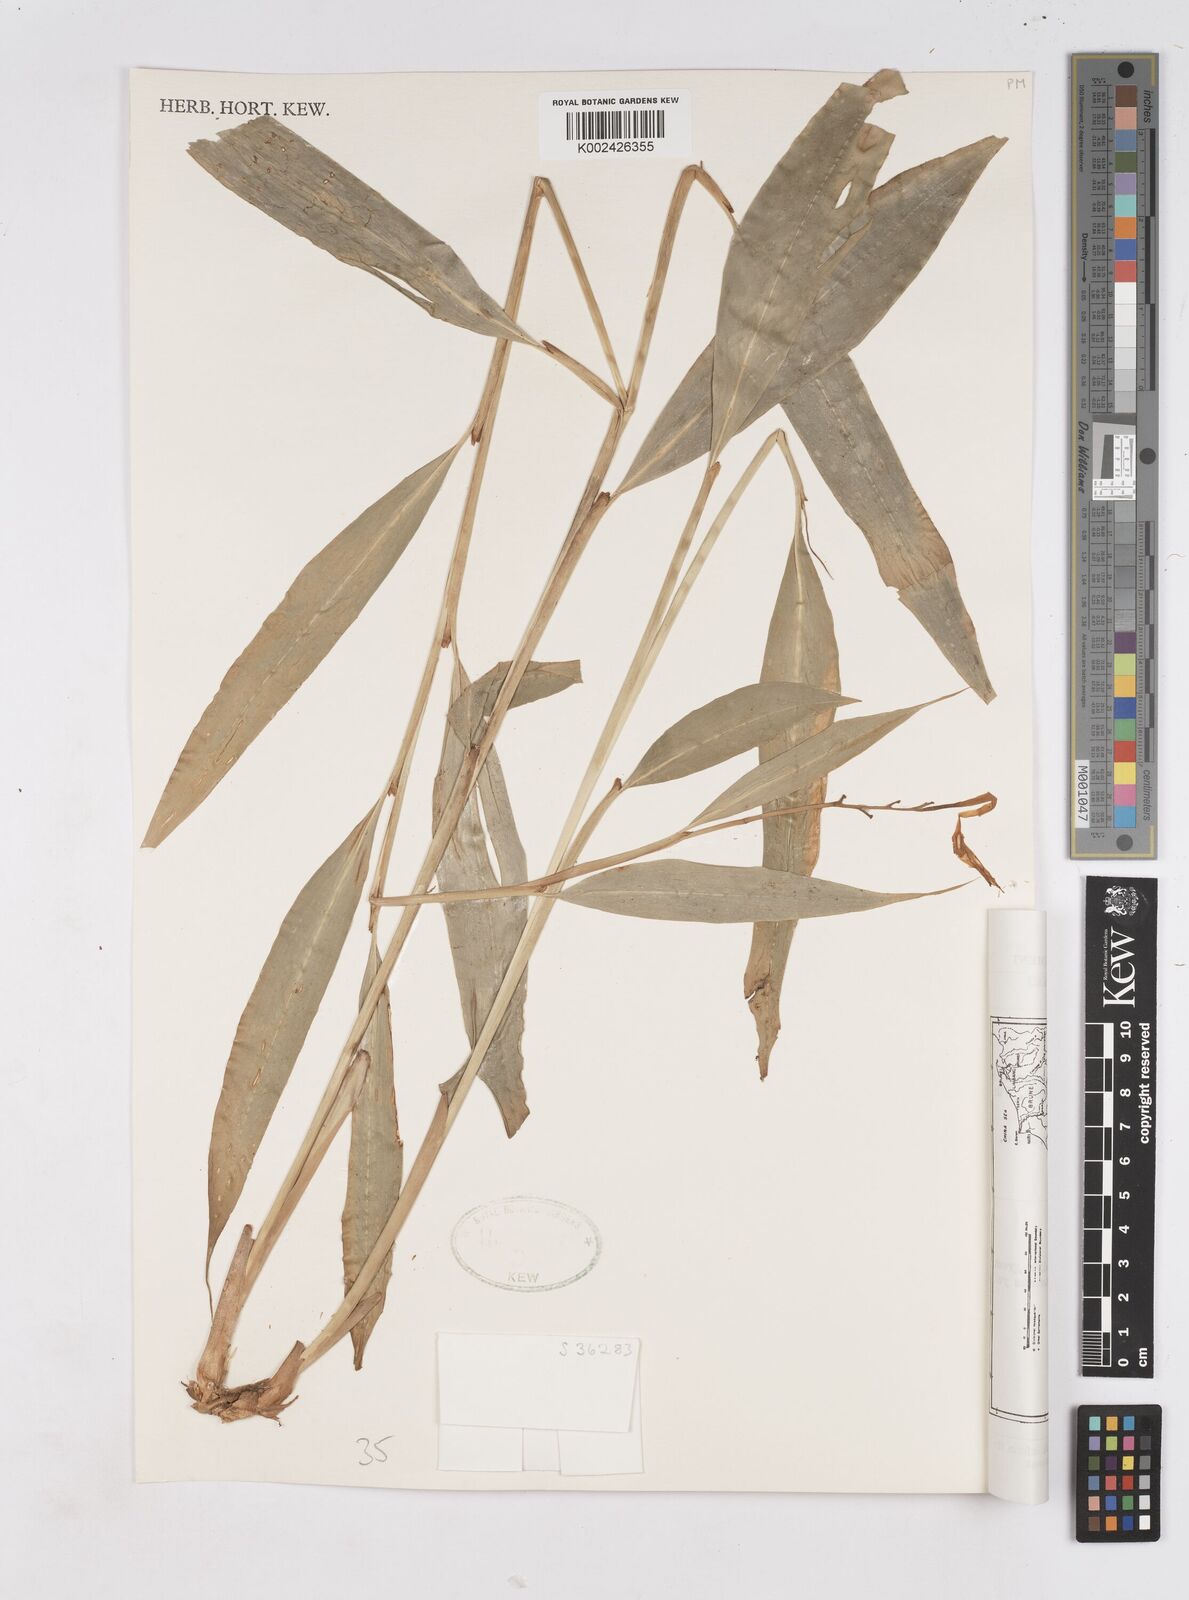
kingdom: Plantae
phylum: Tracheophyta
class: Liliopsida
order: Zingiberales
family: Zingiberaceae
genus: Burbidgea
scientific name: Burbidgea
